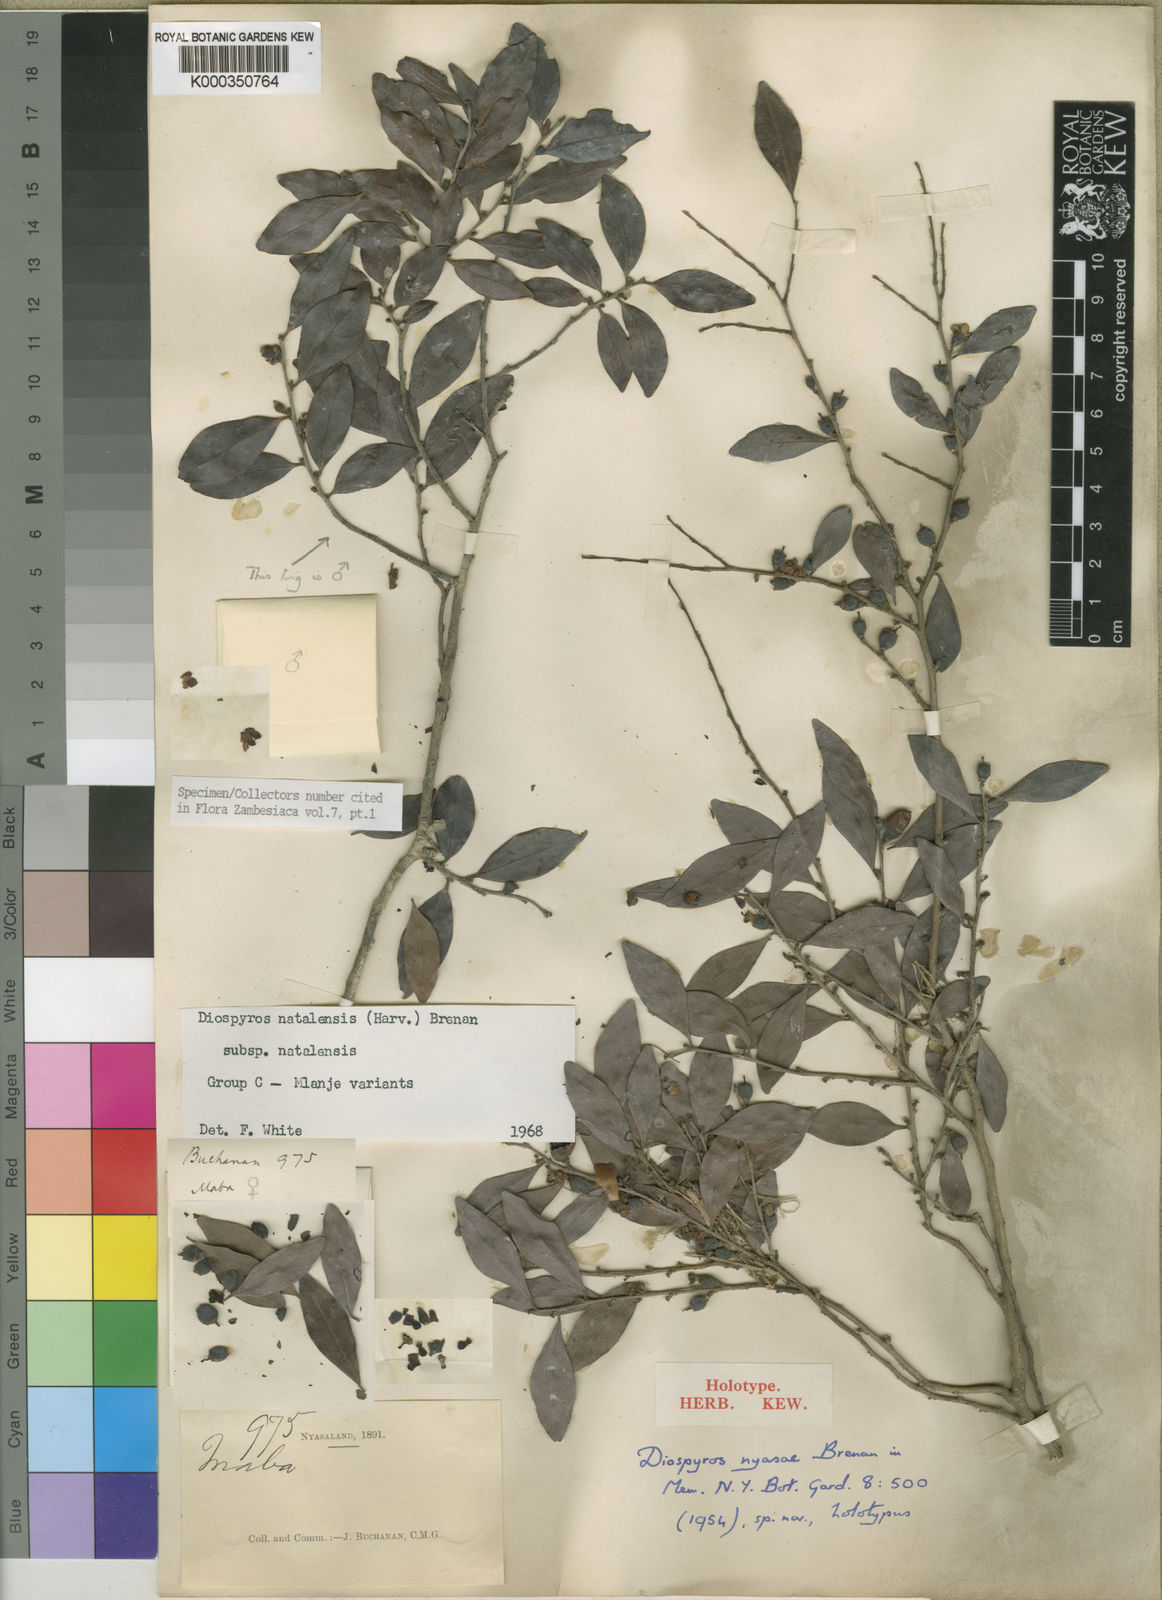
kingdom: Plantae
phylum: Tracheophyta
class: Magnoliopsida
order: Ericales
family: Ebenaceae
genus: Diospyros
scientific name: Diospyros natalensis
